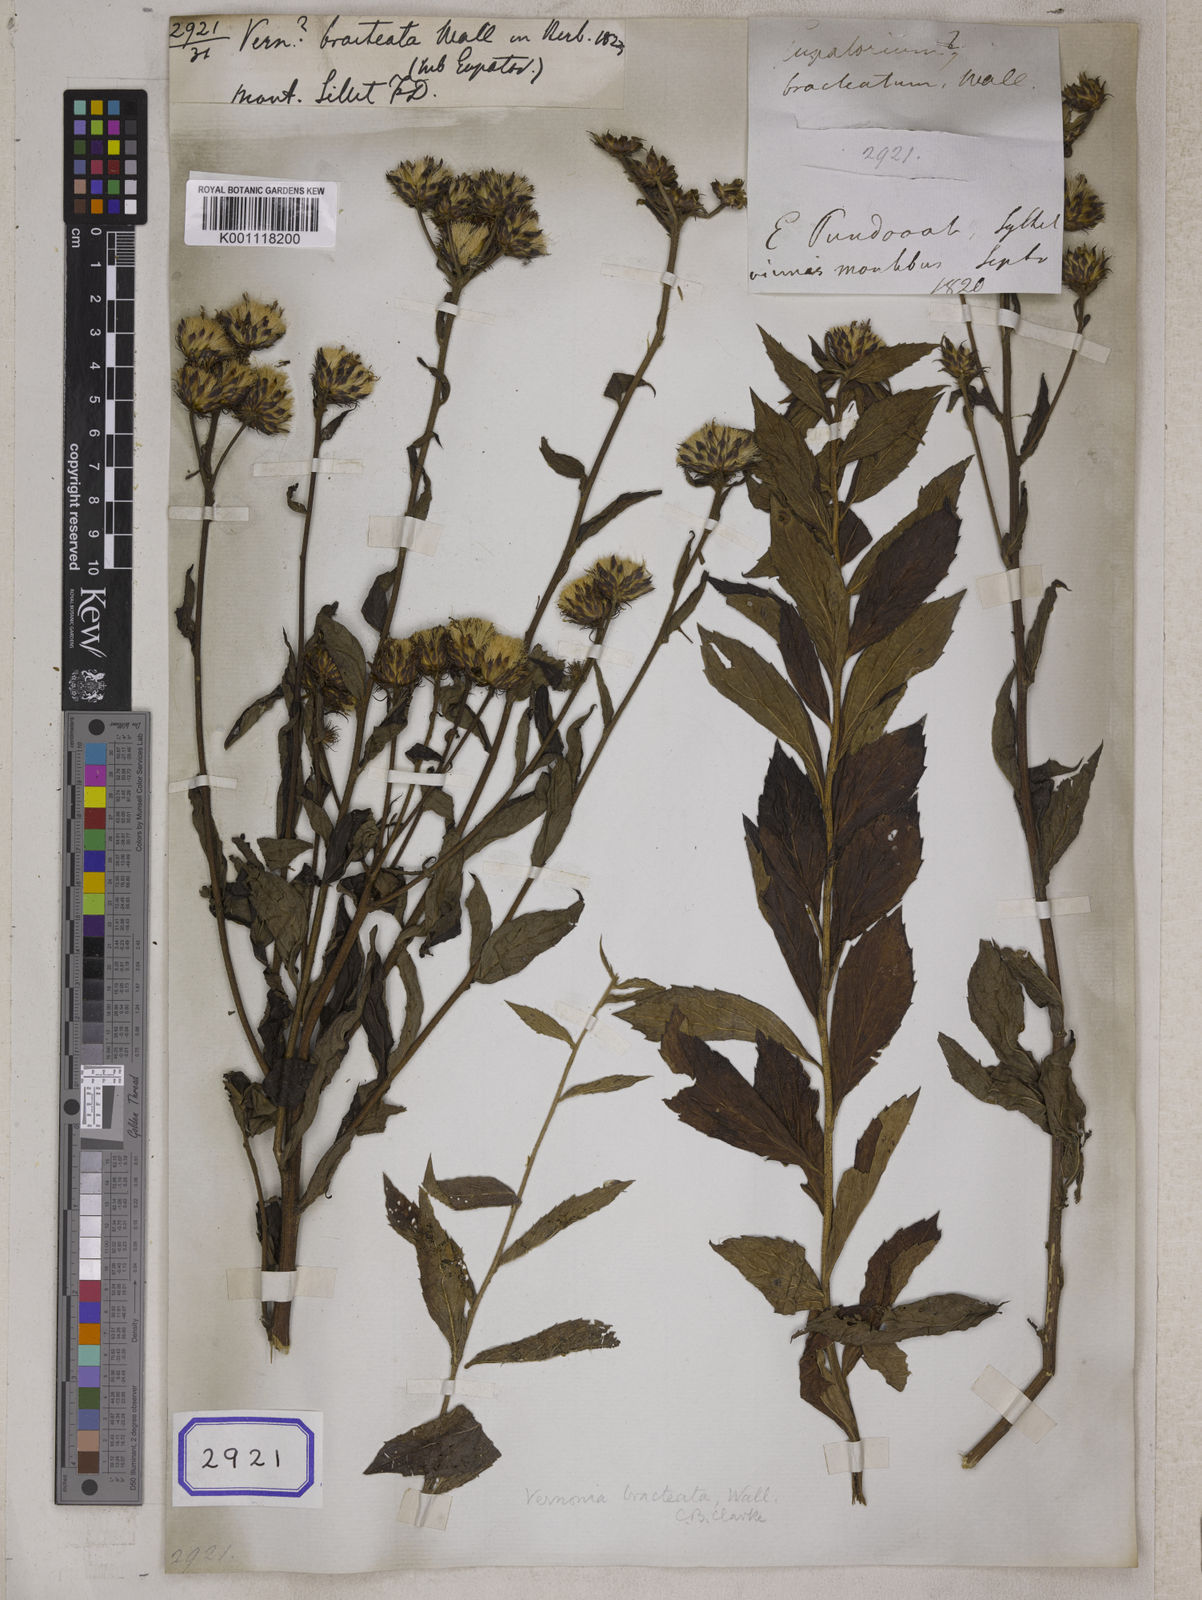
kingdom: Plantae
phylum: Tracheophyta
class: Magnoliopsida
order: Asterales
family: Asteraceae
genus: Acilepis
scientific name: Acilepis silhetensis
